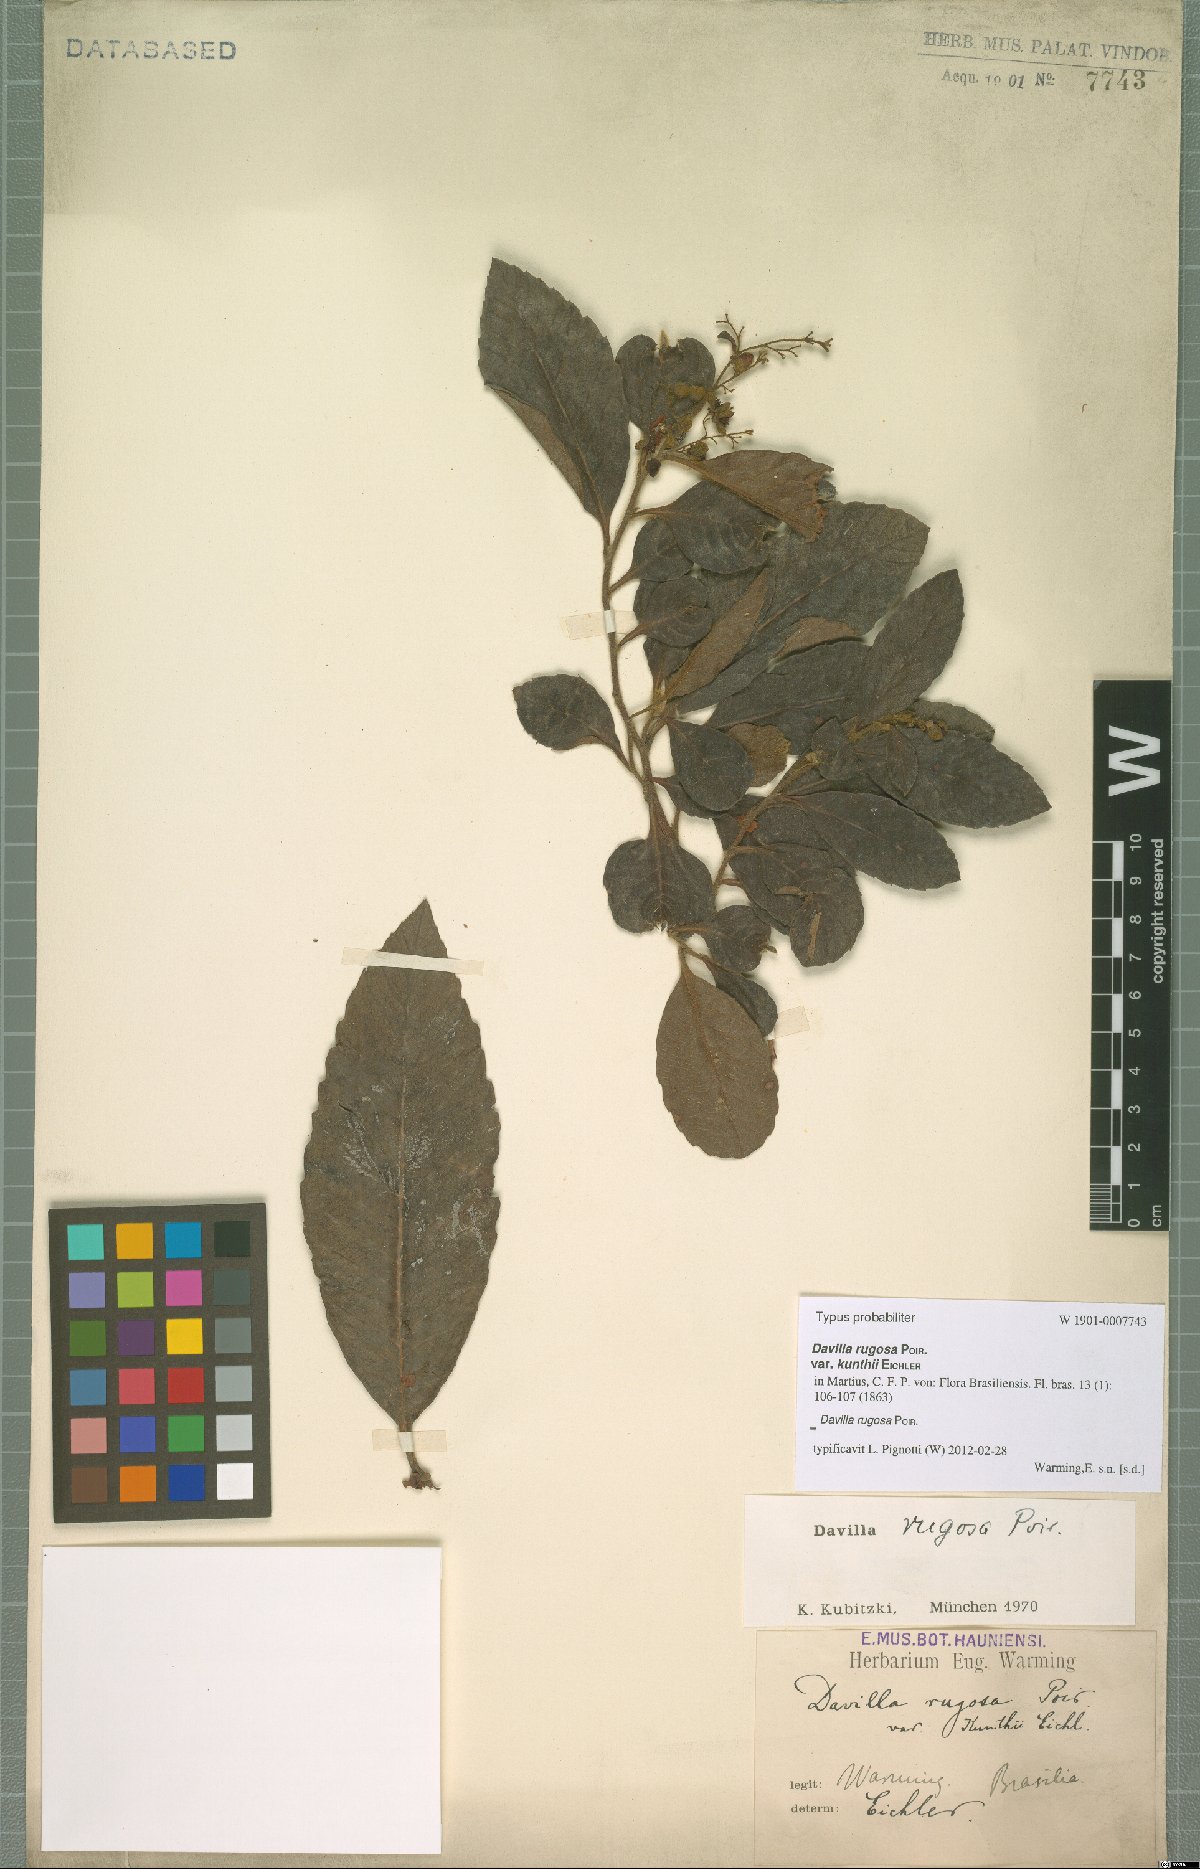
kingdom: Plantae
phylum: Tracheophyta
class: Magnoliopsida
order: Dilleniales
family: Dilleniaceae
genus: Davilla
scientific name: Davilla rugosa
